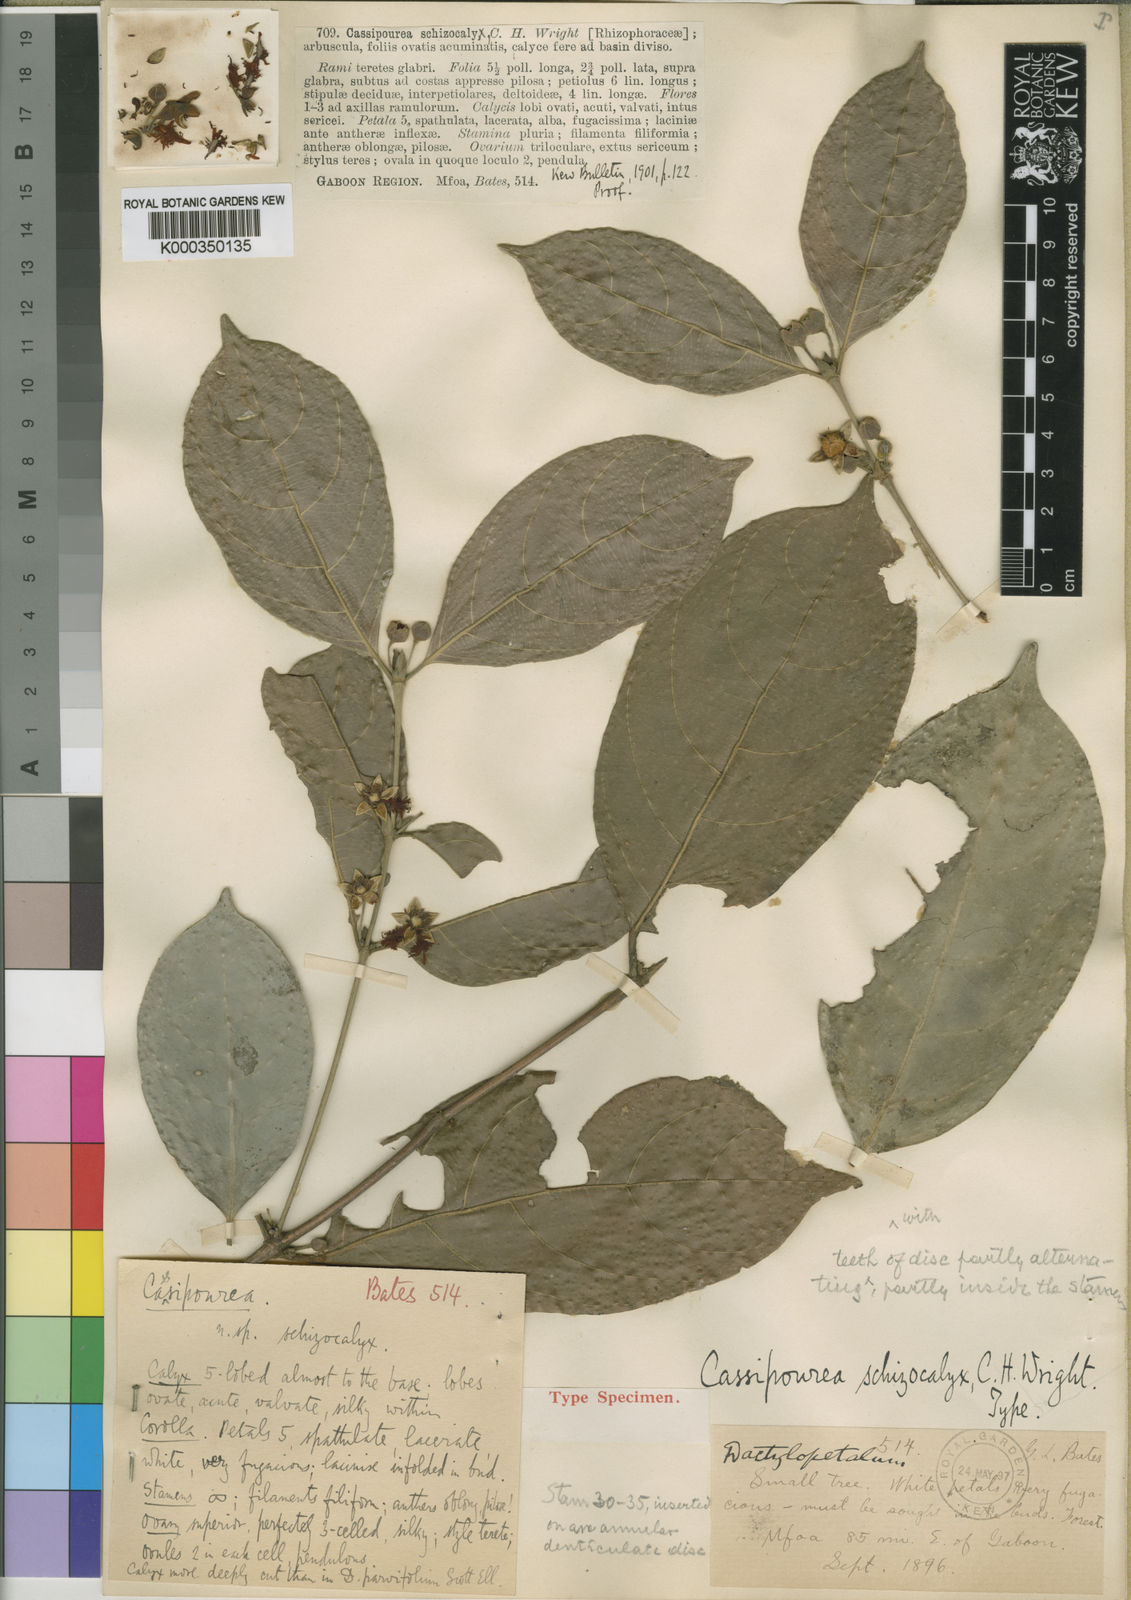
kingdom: Plantae
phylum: Tracheophyta
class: Magnoliopsida
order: Malpighiales
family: Rhizophoraceae
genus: Cassipourea
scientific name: Cassipourea schizocalyx
